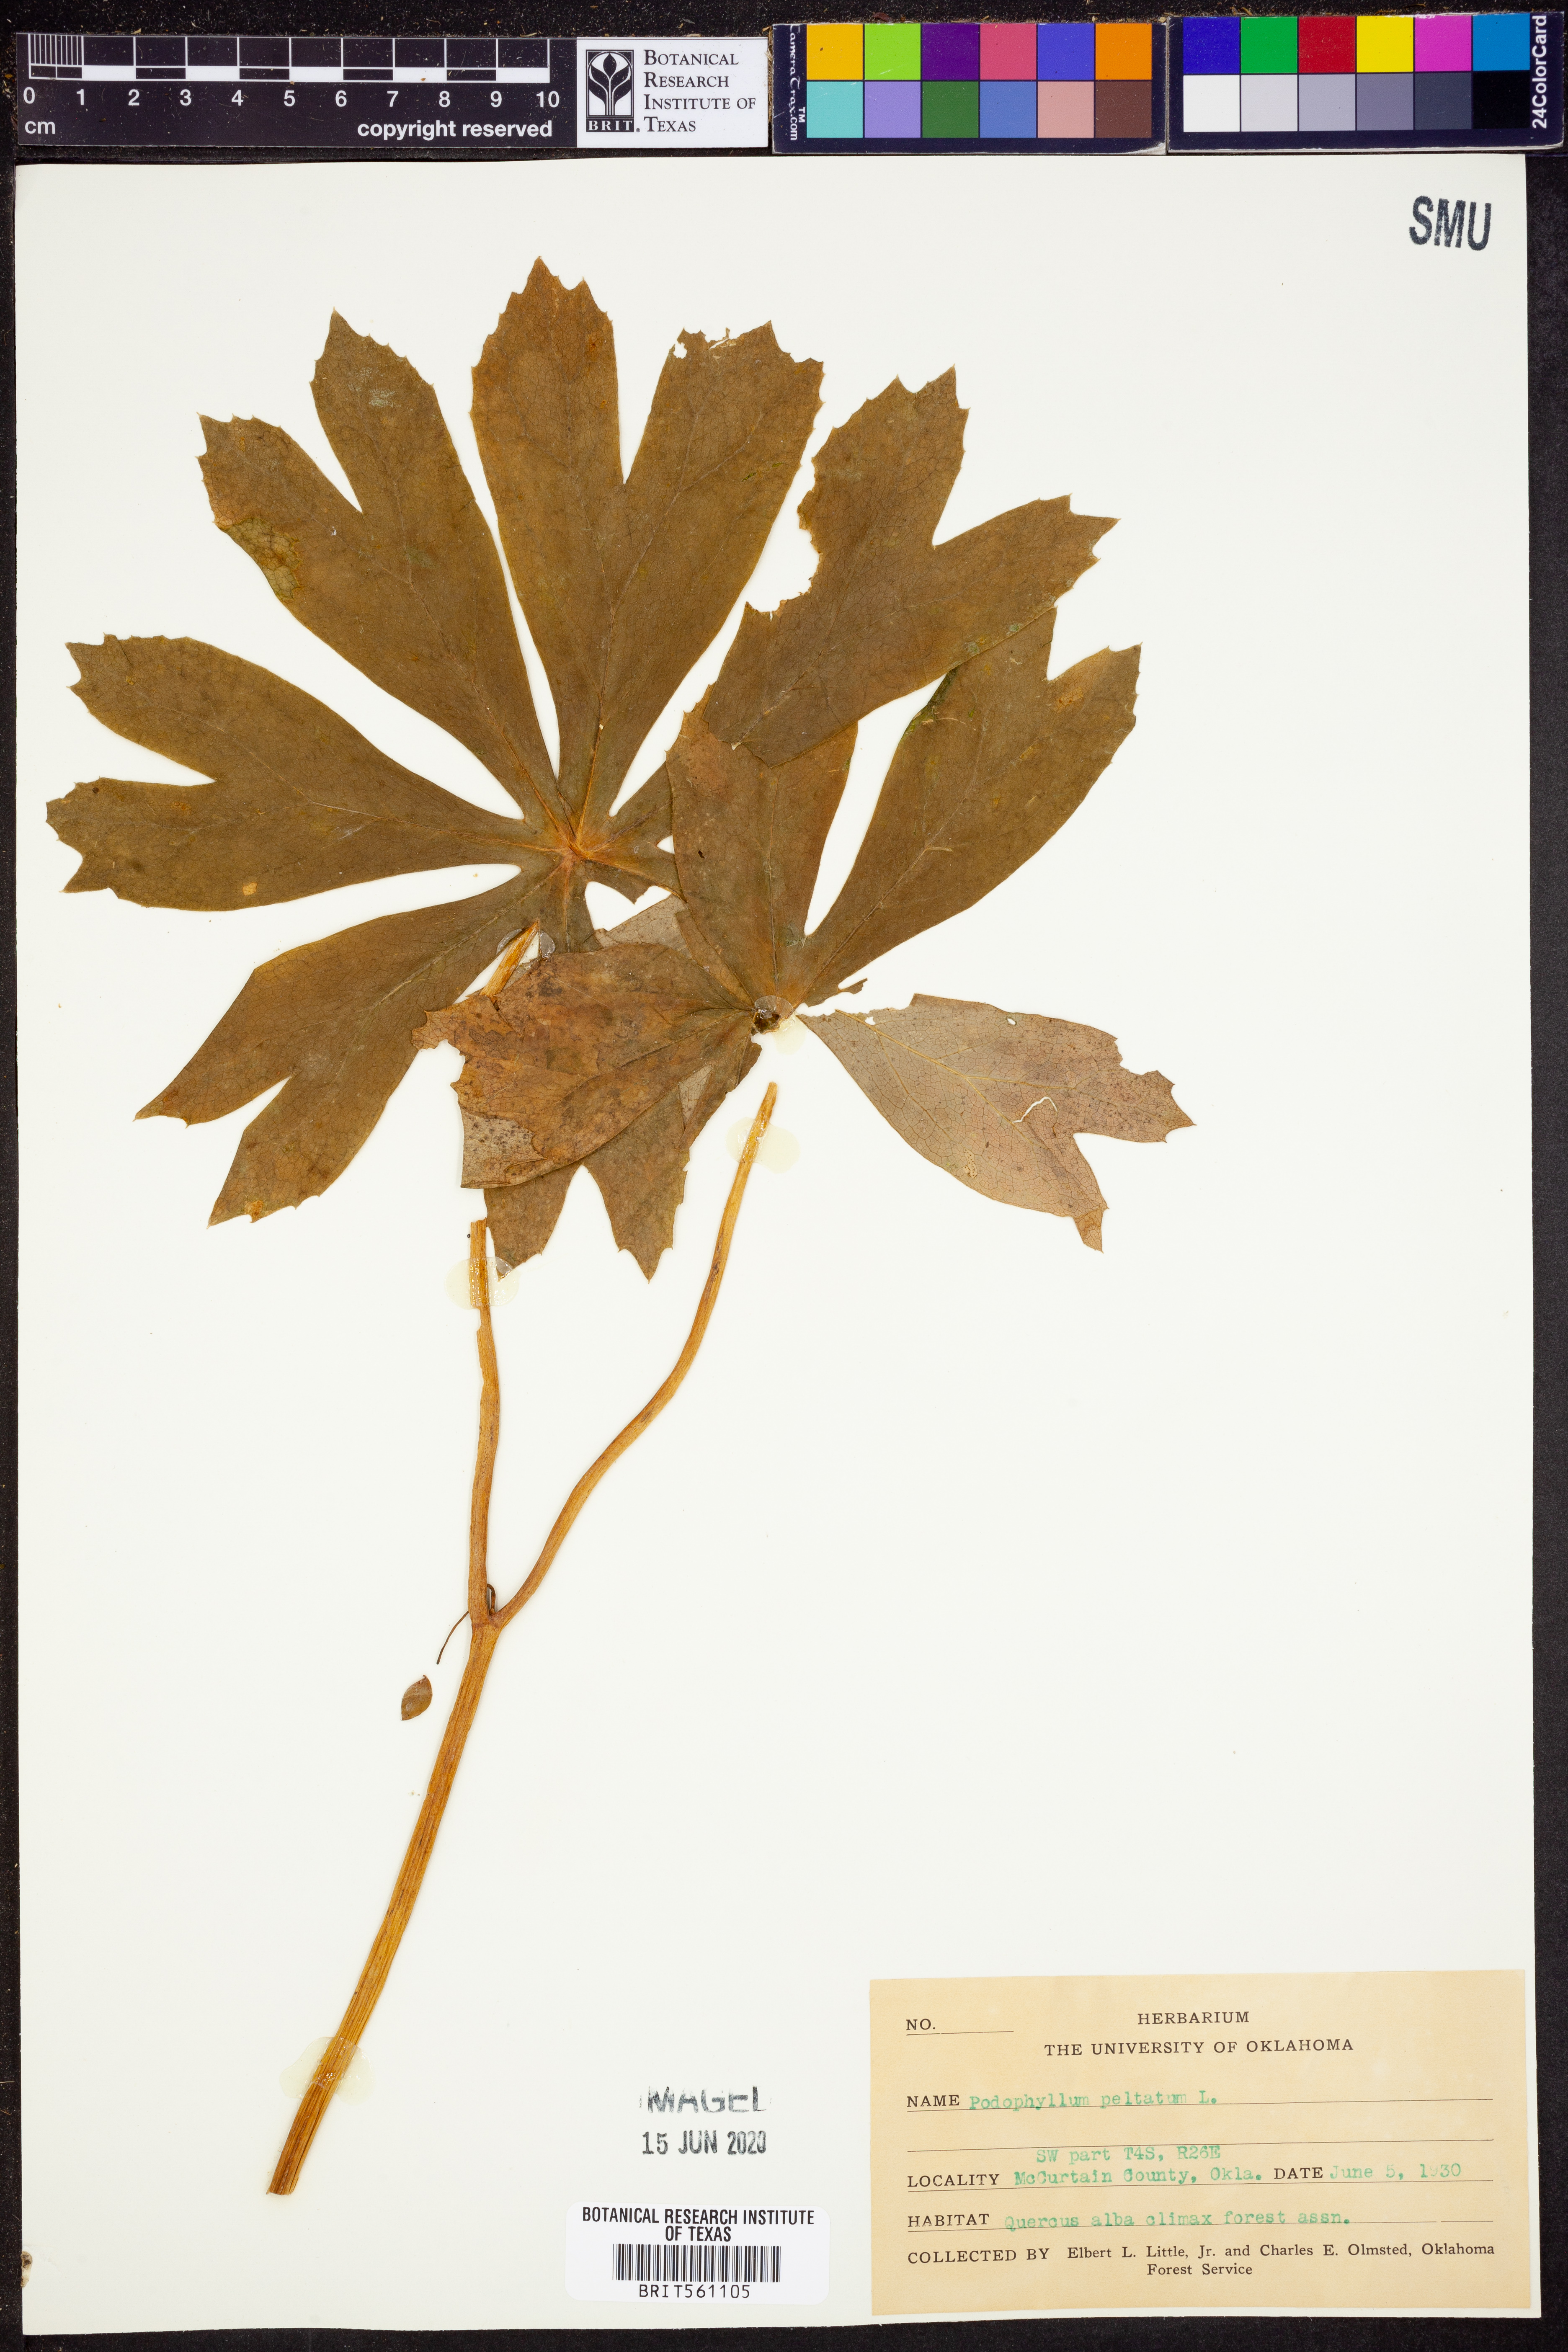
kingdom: Plantae
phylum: Tracheophyta
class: Magnoliopsida
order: Ranunculales
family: Berberidaceae
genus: Podophyllum
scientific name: Podophyllum peltatum
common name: Wild mandrake
